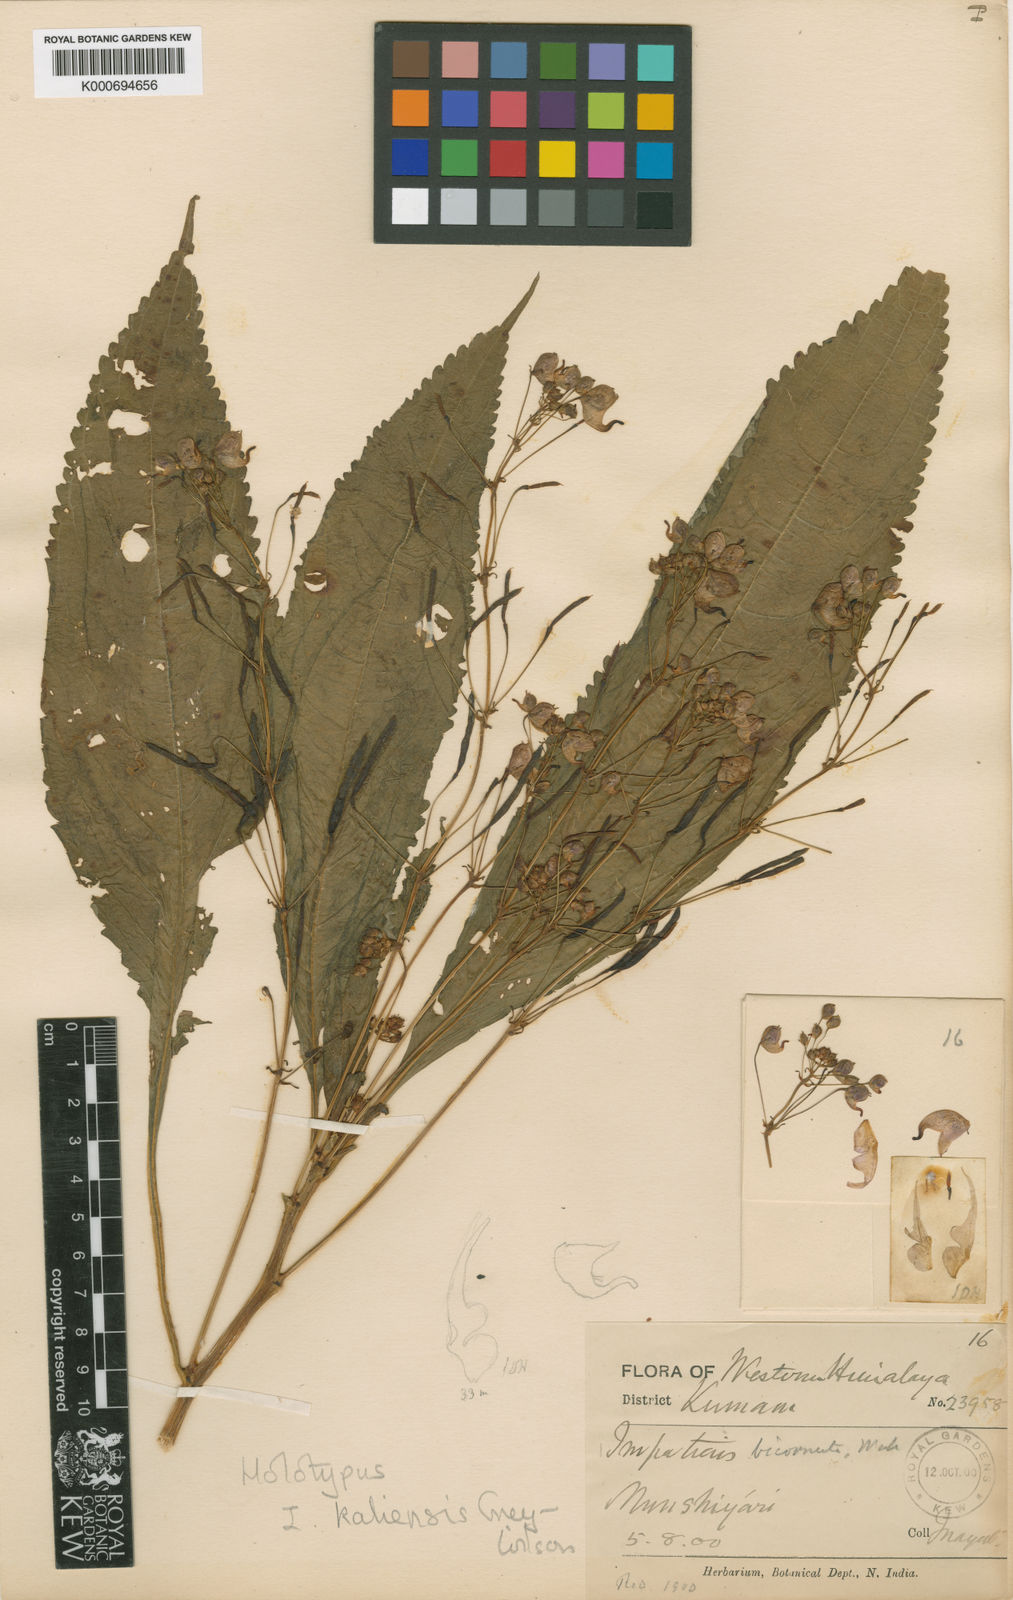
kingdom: Plantae
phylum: Tracheophyta
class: Magnoliopsida
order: Ericales
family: Balsaminaceae
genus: Impatiens
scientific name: Impatiens bicornuta
